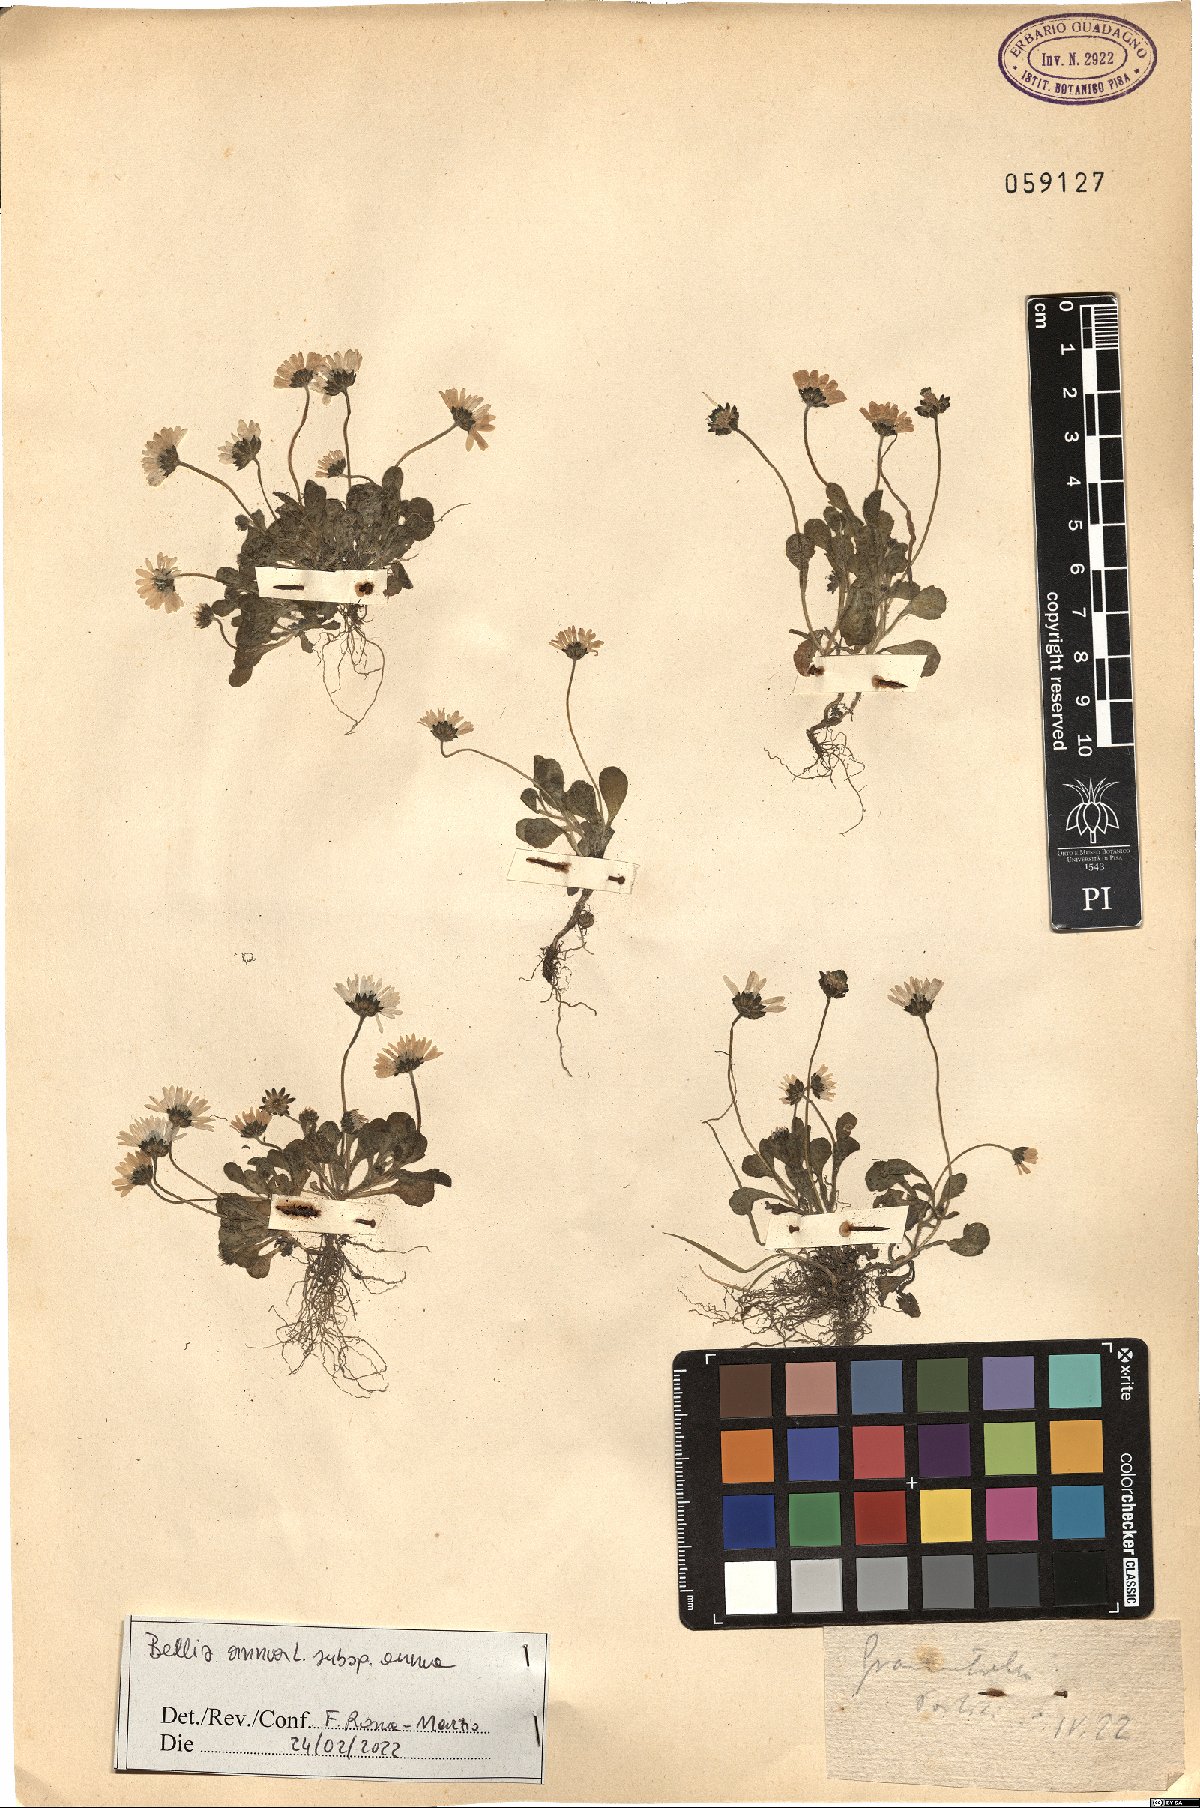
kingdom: Plantae
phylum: Tracheophyta
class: Magnoliopsida
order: Asterales
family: Asteraceae
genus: Bellis
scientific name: Bellis annua
